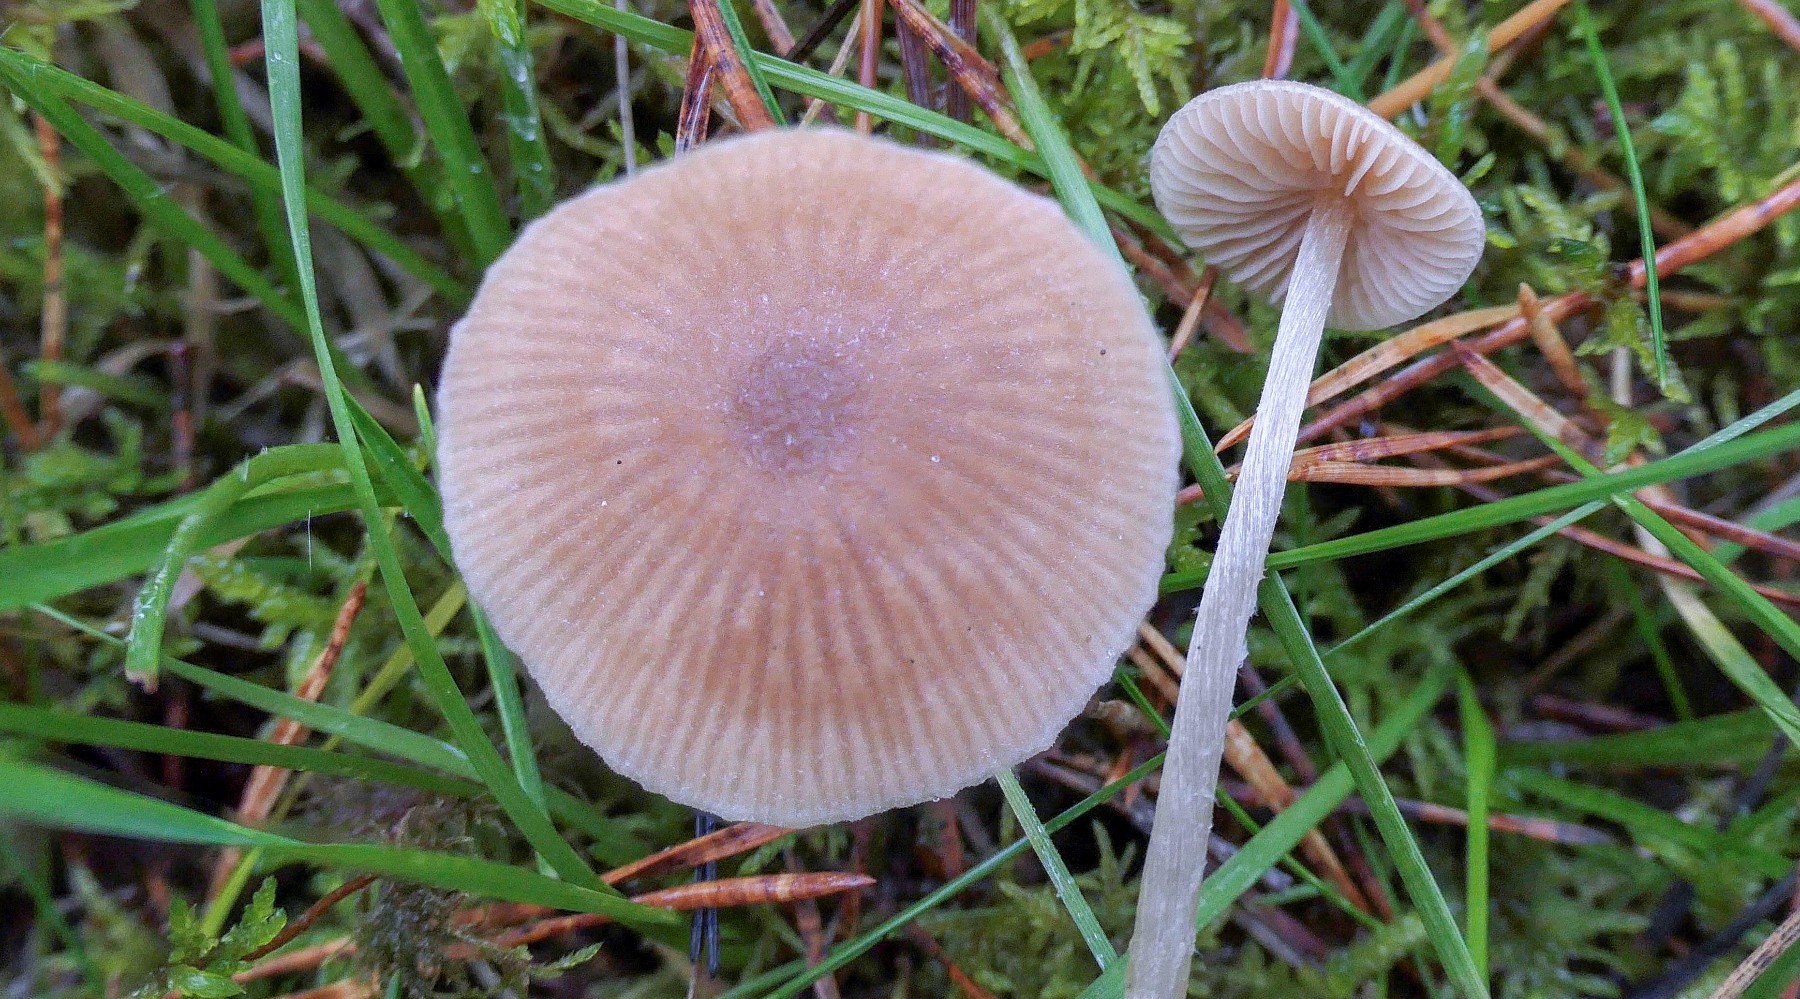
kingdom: Fungi
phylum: Basidiomycota
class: Agaricomycetes
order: Agaricales
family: Entolomataceae
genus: Entoloma
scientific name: Entoloma cetratum
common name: voks-rødblad
